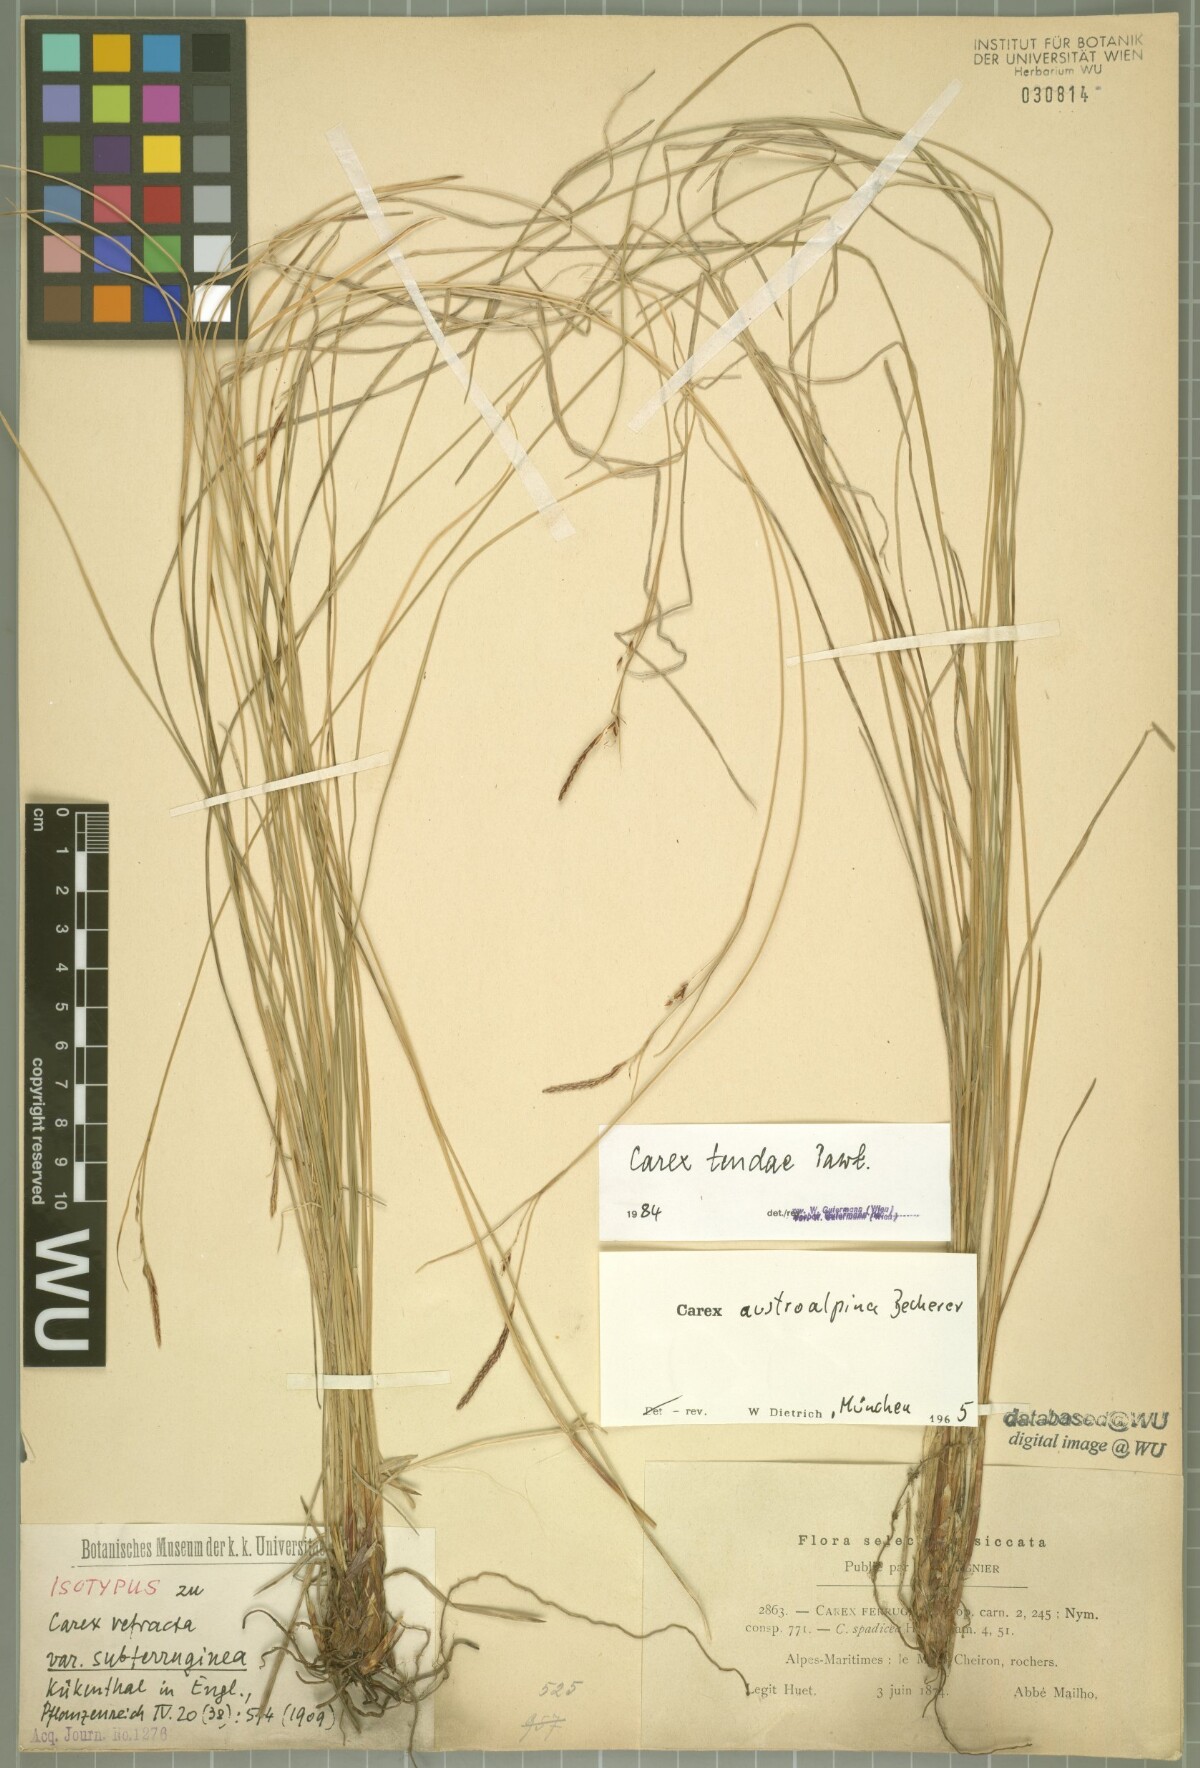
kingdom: Plantae
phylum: Tracheophyta
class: Liliopsida
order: Poales
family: Cyperaceae
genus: Carex
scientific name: Carex austroalpina
